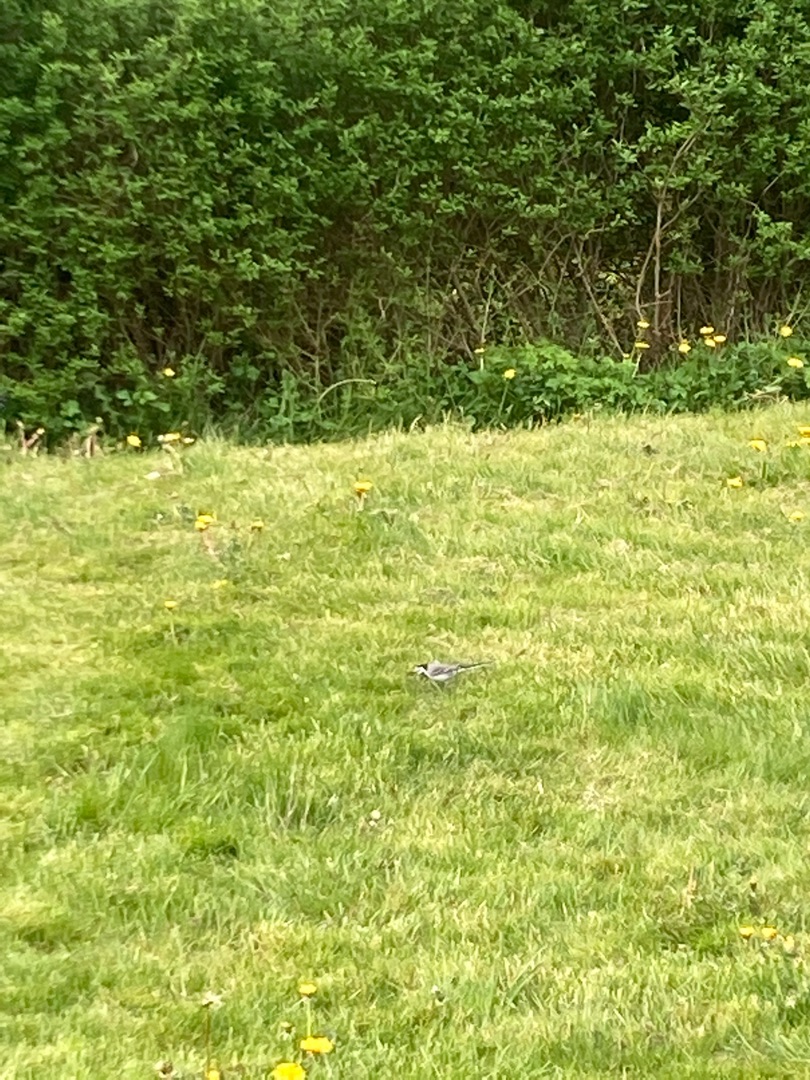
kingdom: Animalia
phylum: Chordata
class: Aves
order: Passeriformes
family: Motacillidae
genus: Motacilla
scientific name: Motacilla alba
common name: Hvid vipstjert
